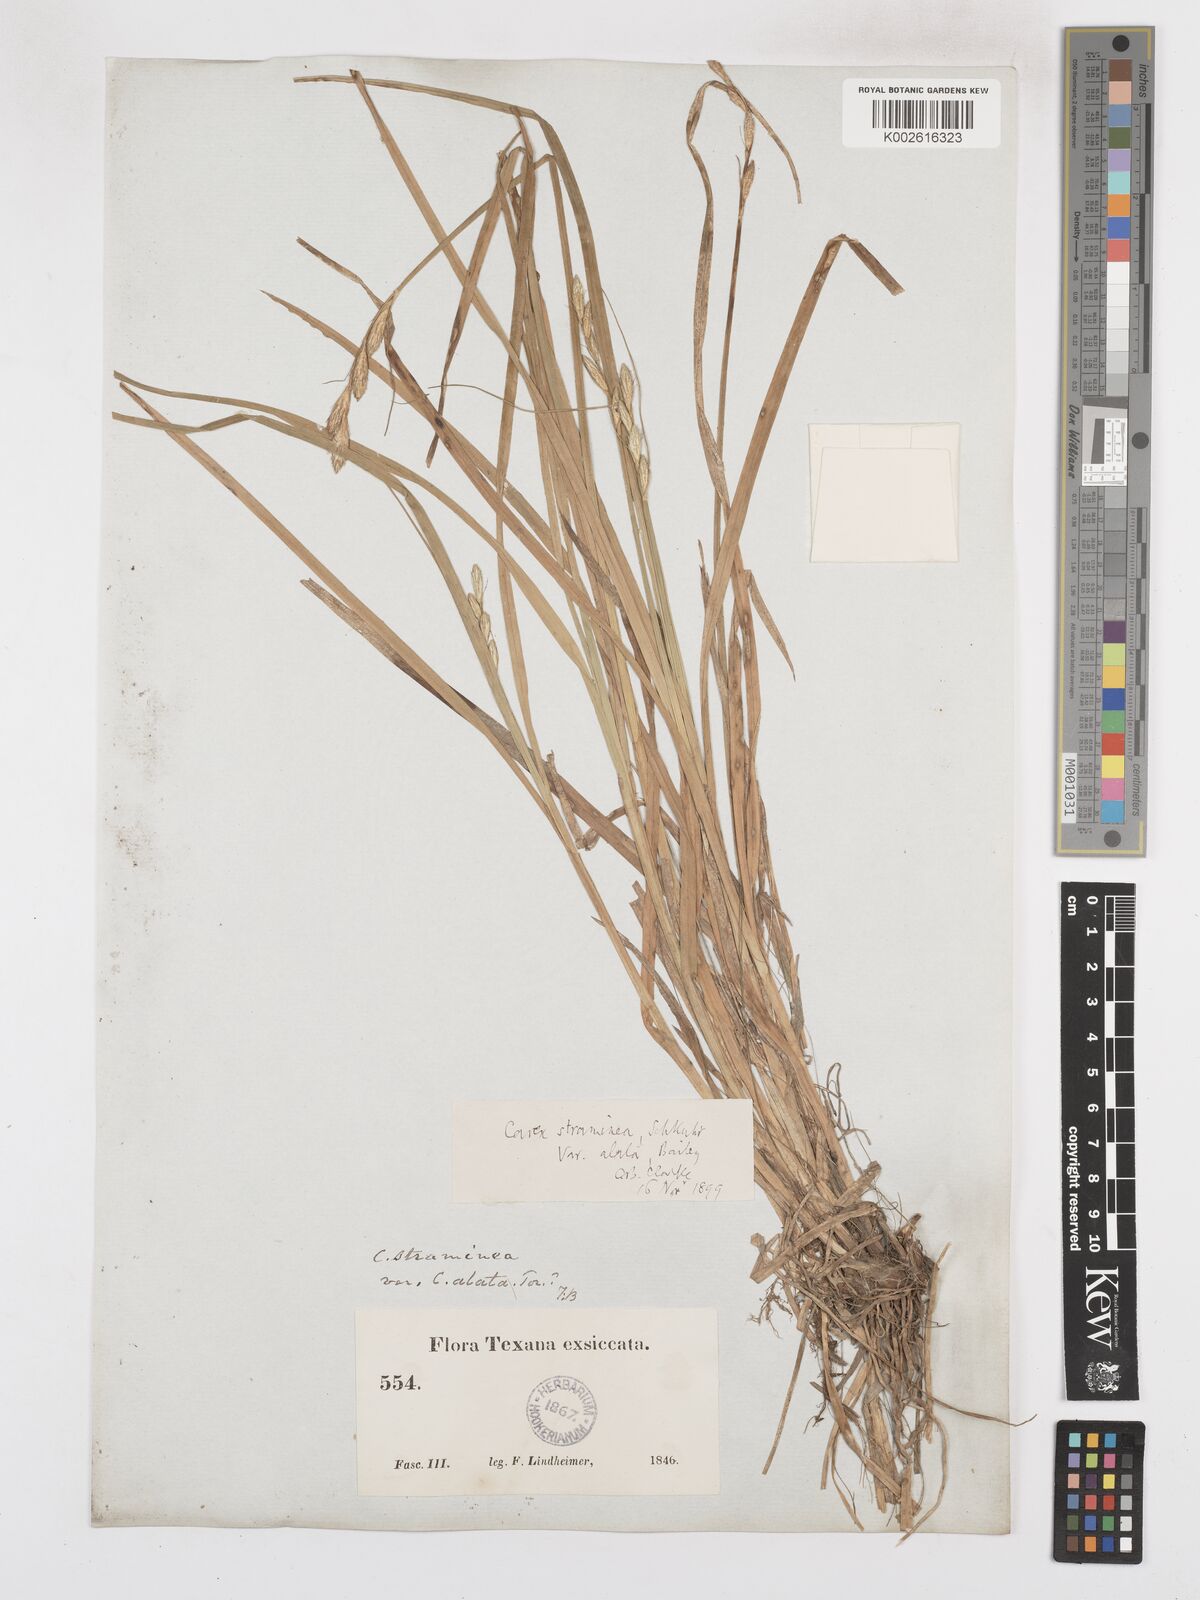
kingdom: Plantae
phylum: Tracheophyta
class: Liliopsida
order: Poales
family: Cyperaceae
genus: Carex
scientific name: Carex alata
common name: Broad-winged sedge
